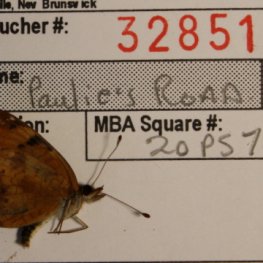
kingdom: Animalia
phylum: Arthropoda
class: Insecta
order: Lepidoptera
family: Nymphalidae
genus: Phyciodes
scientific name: Phyciodes tharos
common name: Northern Crescent
